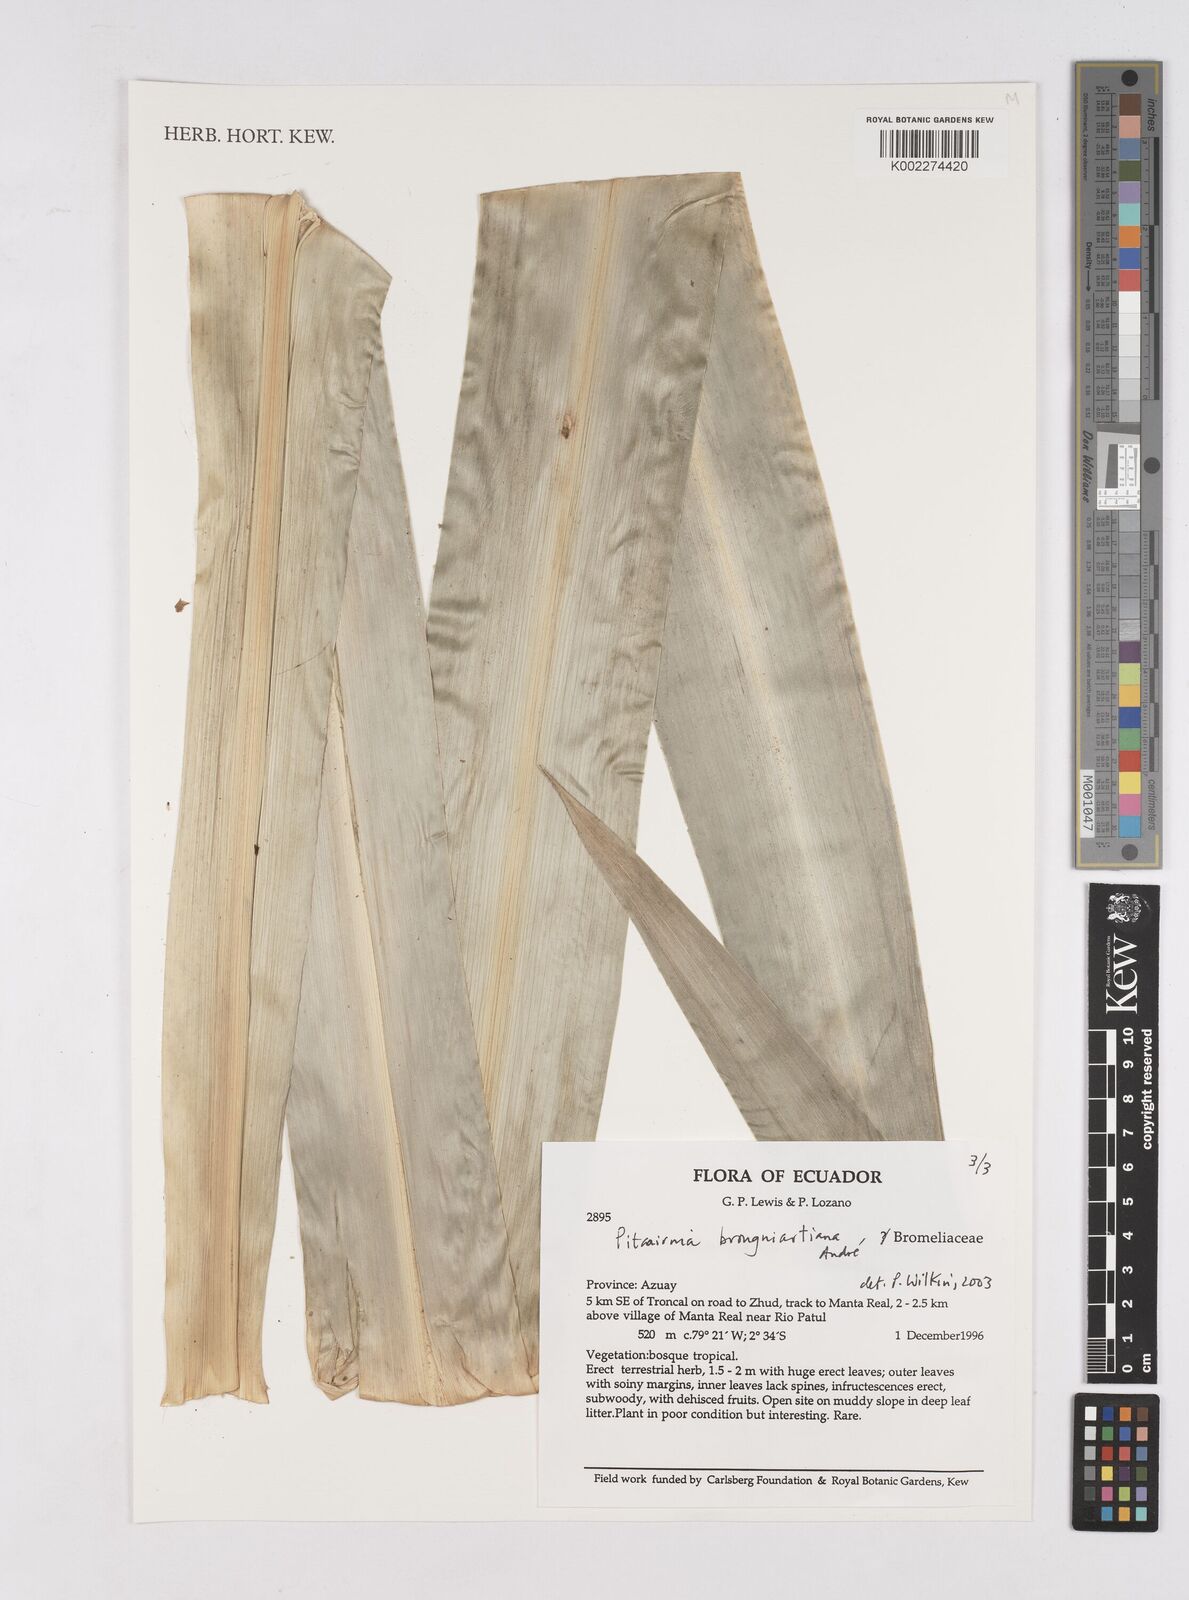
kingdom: Plantae
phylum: Tracheophyta
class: Liliopsida
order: Poales
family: Bromeliaceae
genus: Pitcairnia
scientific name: Pitcairnia brongniartiana
